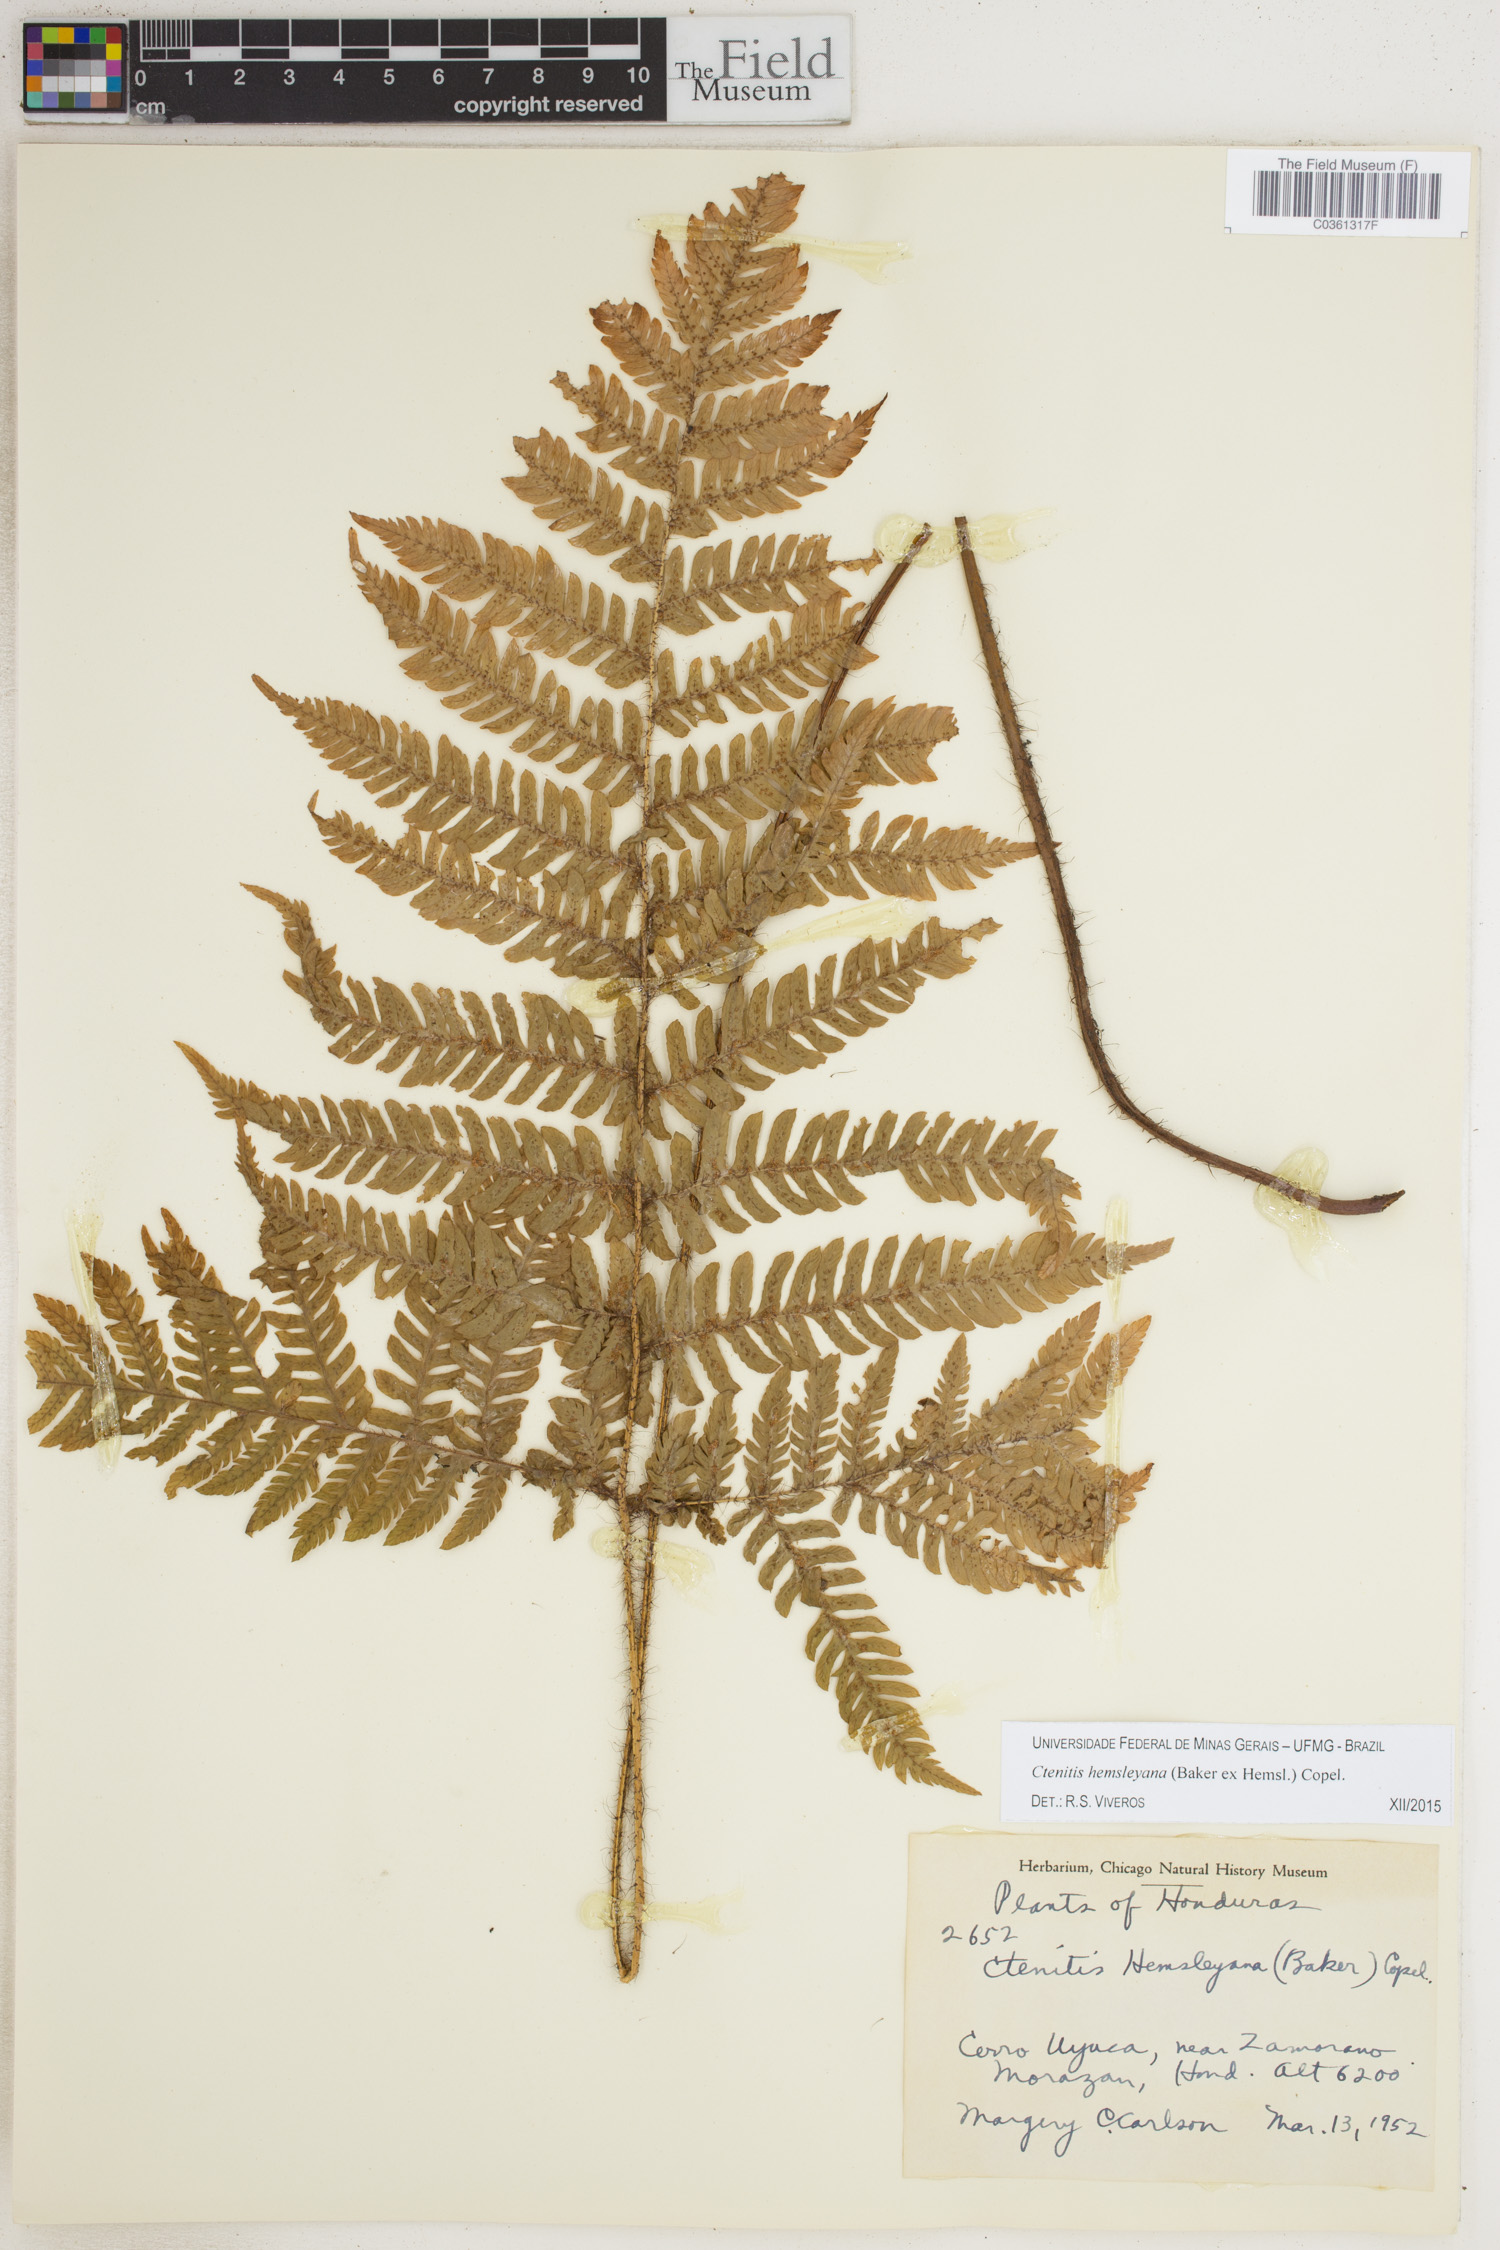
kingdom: Plantae
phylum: Tracheophyta
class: Polypodiopsida
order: Polypodiales
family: Dryopteridaceae
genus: Ctenitis
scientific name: Ctenitis hemsleyana
